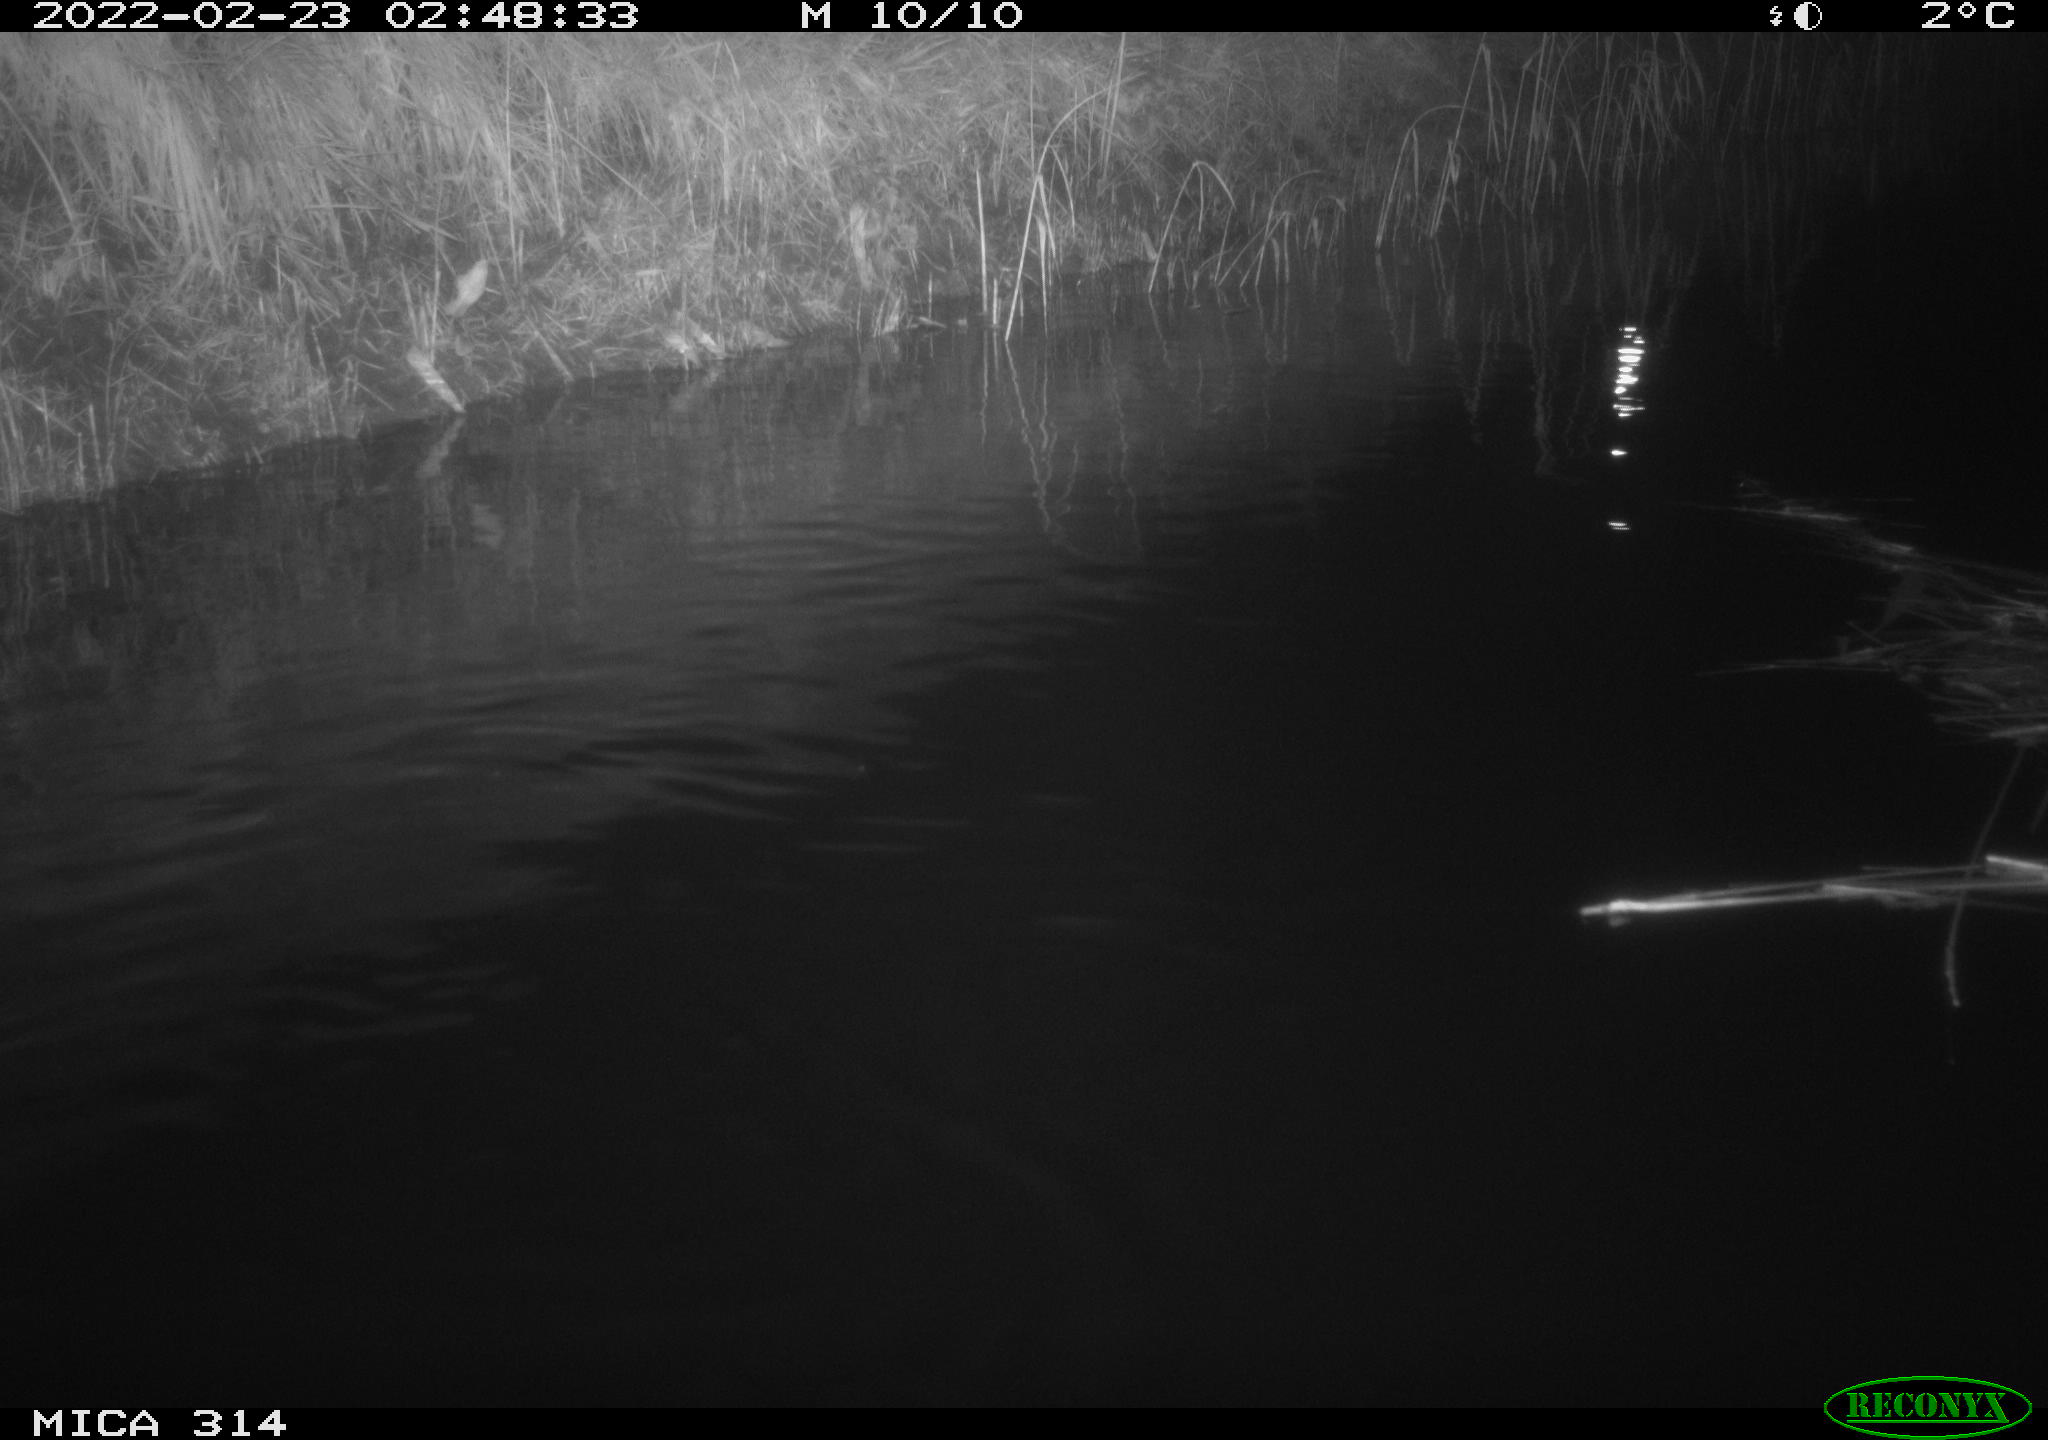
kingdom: Animalia
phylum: Chordata
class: Mammalia
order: Rodentia
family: Muridae
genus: Rattus
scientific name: Rattus norvegicus
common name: Brown rat
